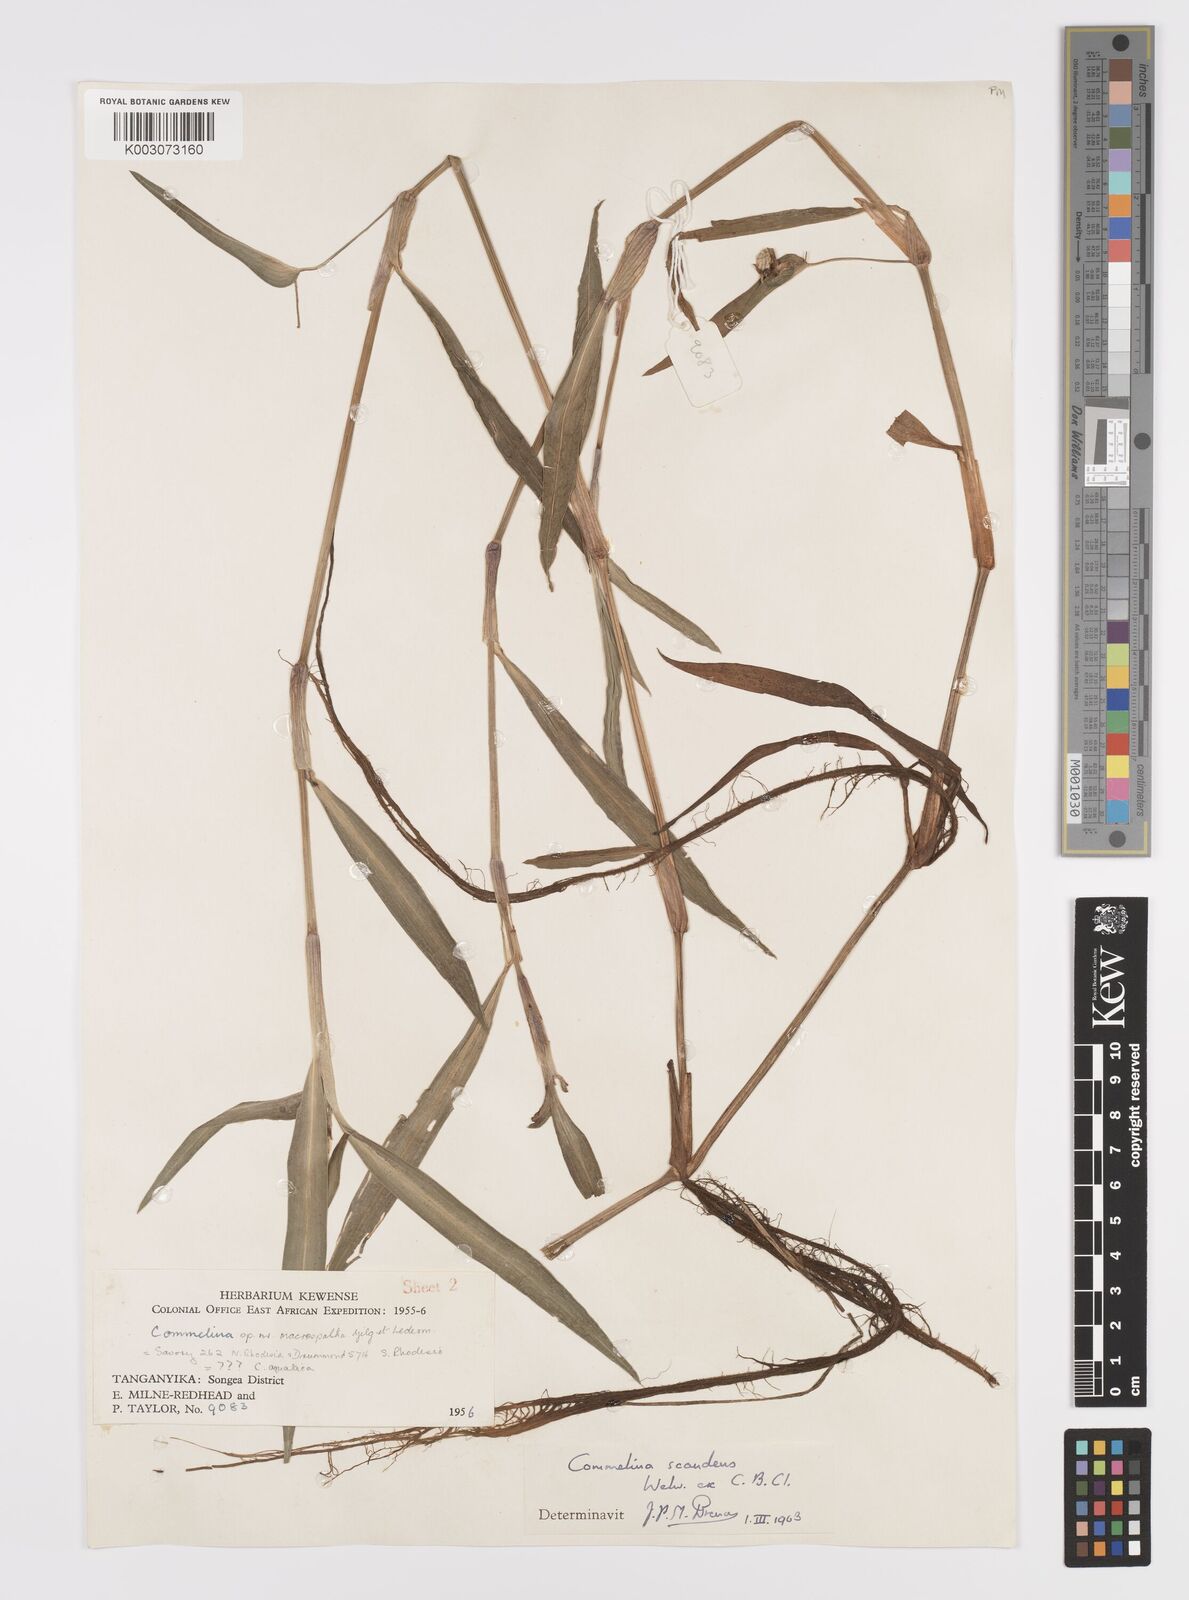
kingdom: Plantae
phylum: Tracheophyta
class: Liliopsida
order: Commelinales
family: Commelinaceae
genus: Commelina
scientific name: Commelina scandens
